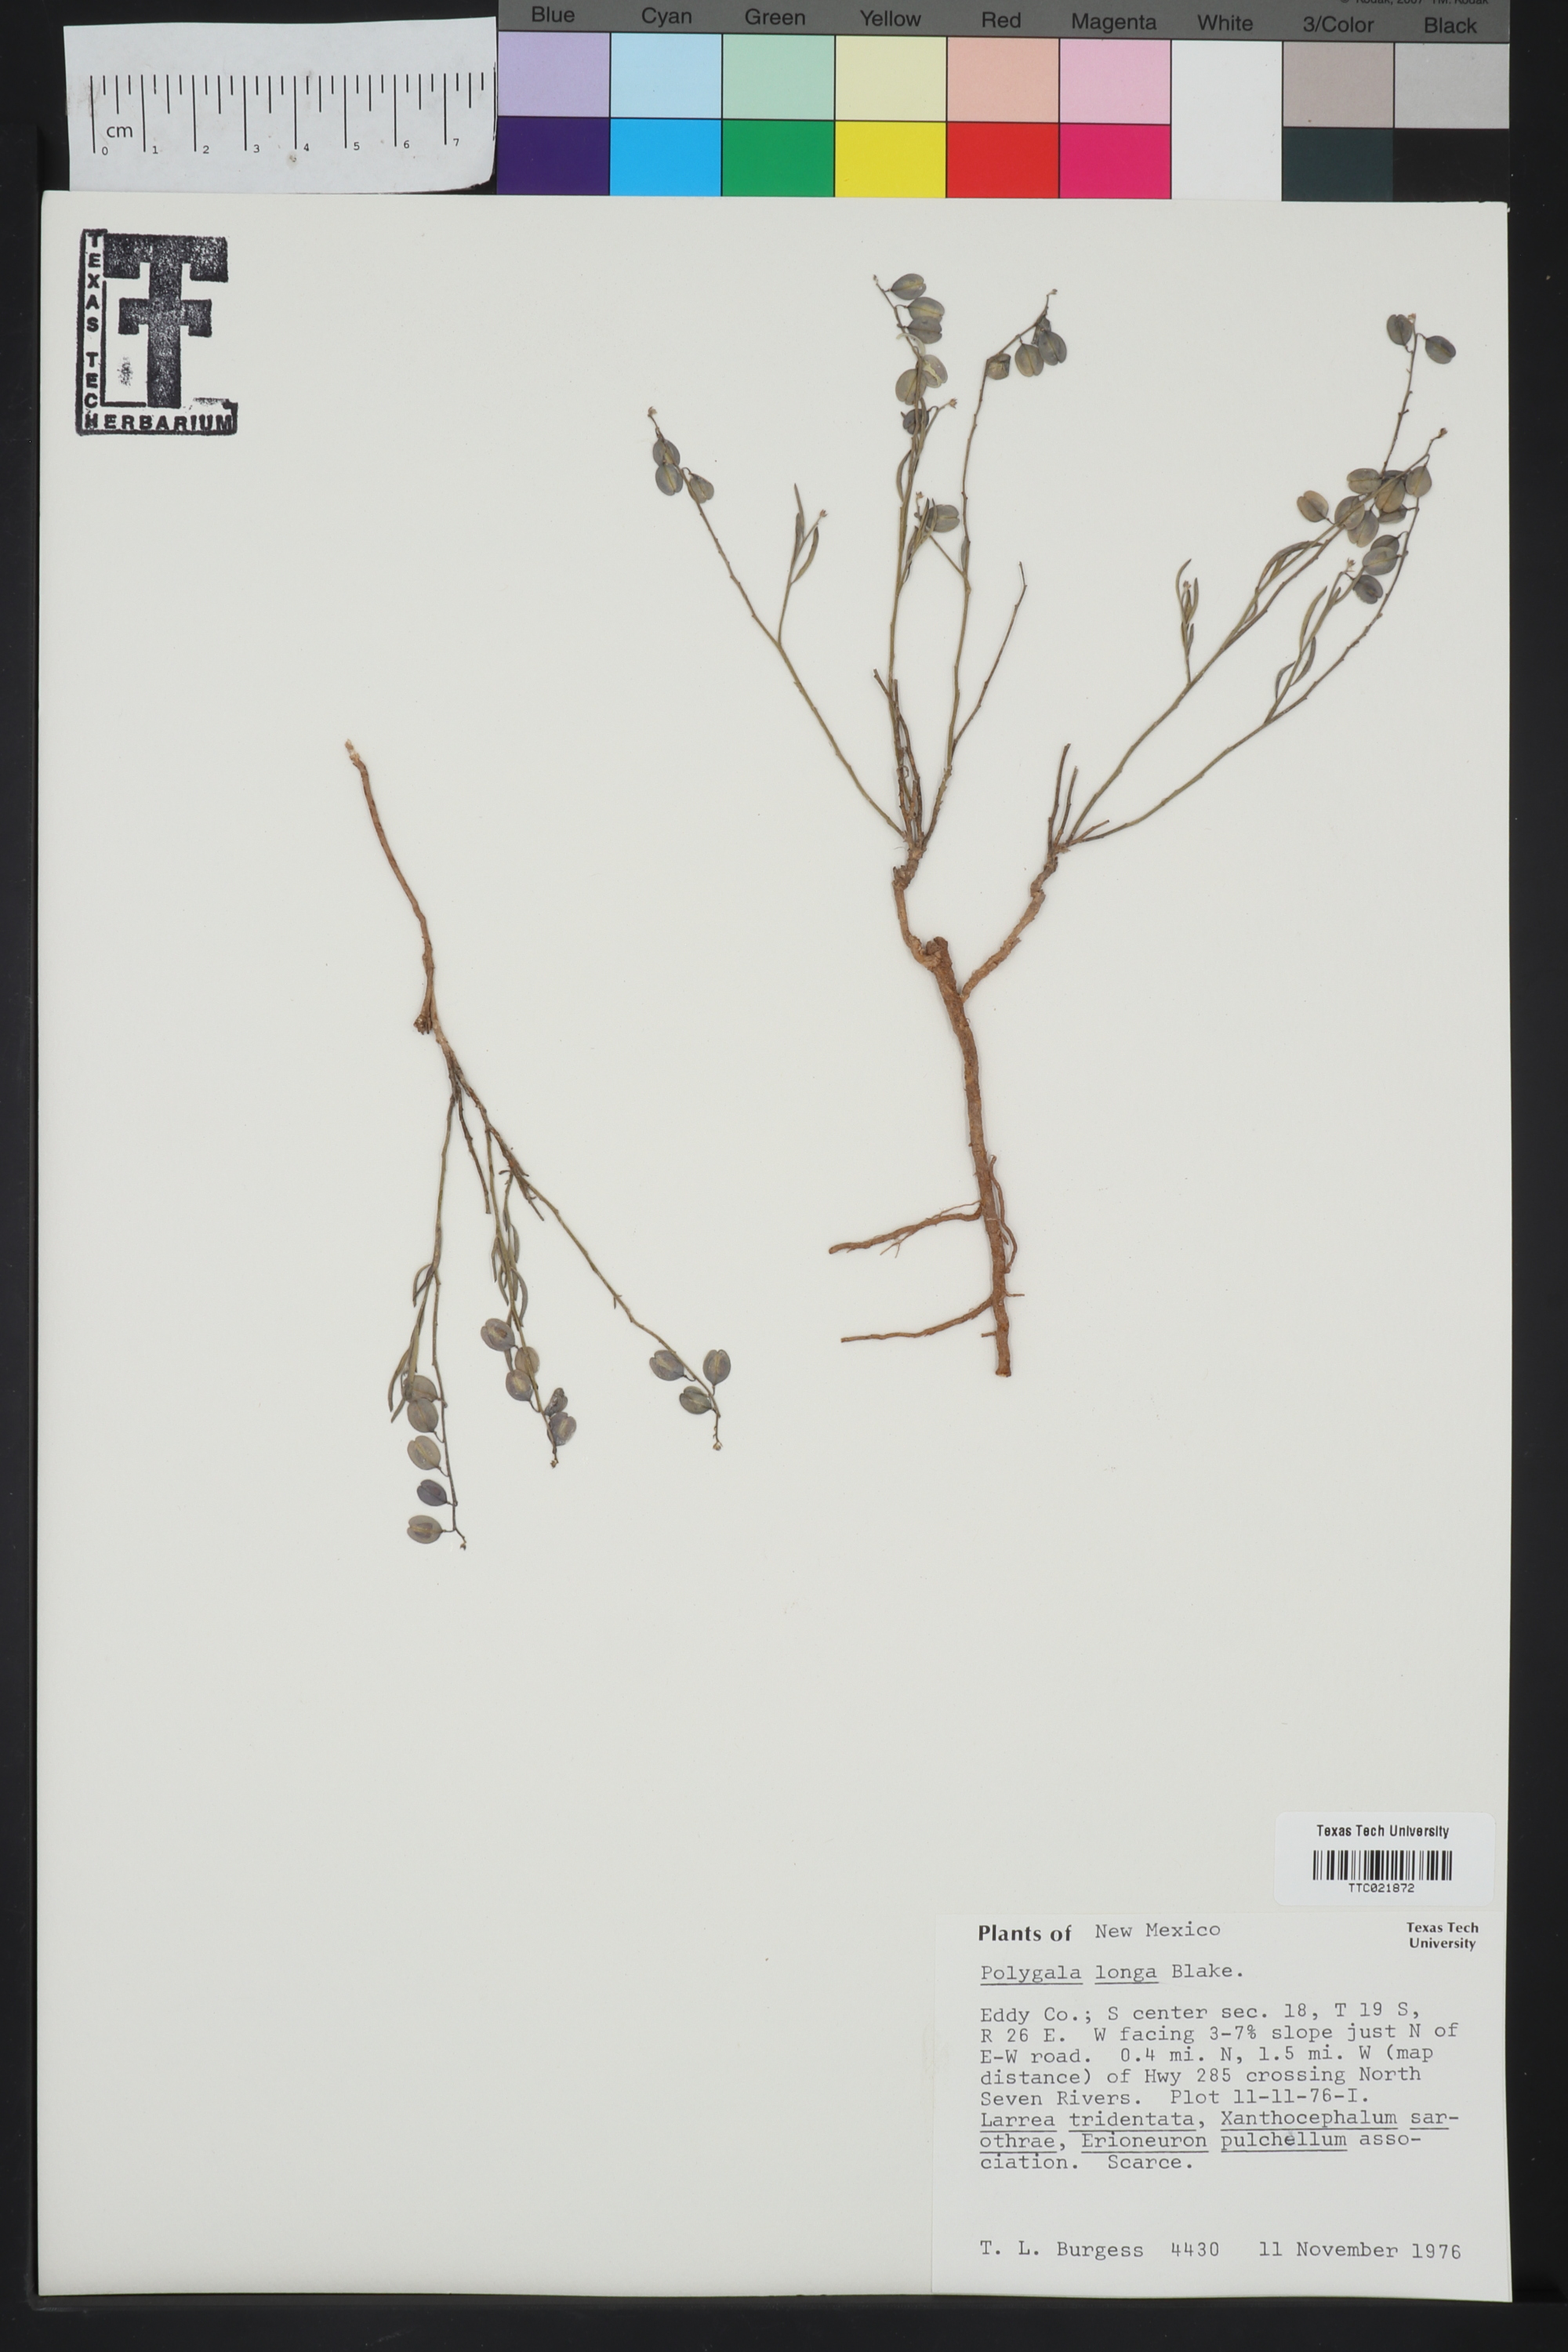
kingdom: Plantae
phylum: Tracheophyta
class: Magnoliopsida
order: Fabales
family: Polygalaceae
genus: Hebecarpa
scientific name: Hebecarpa barbeyana
